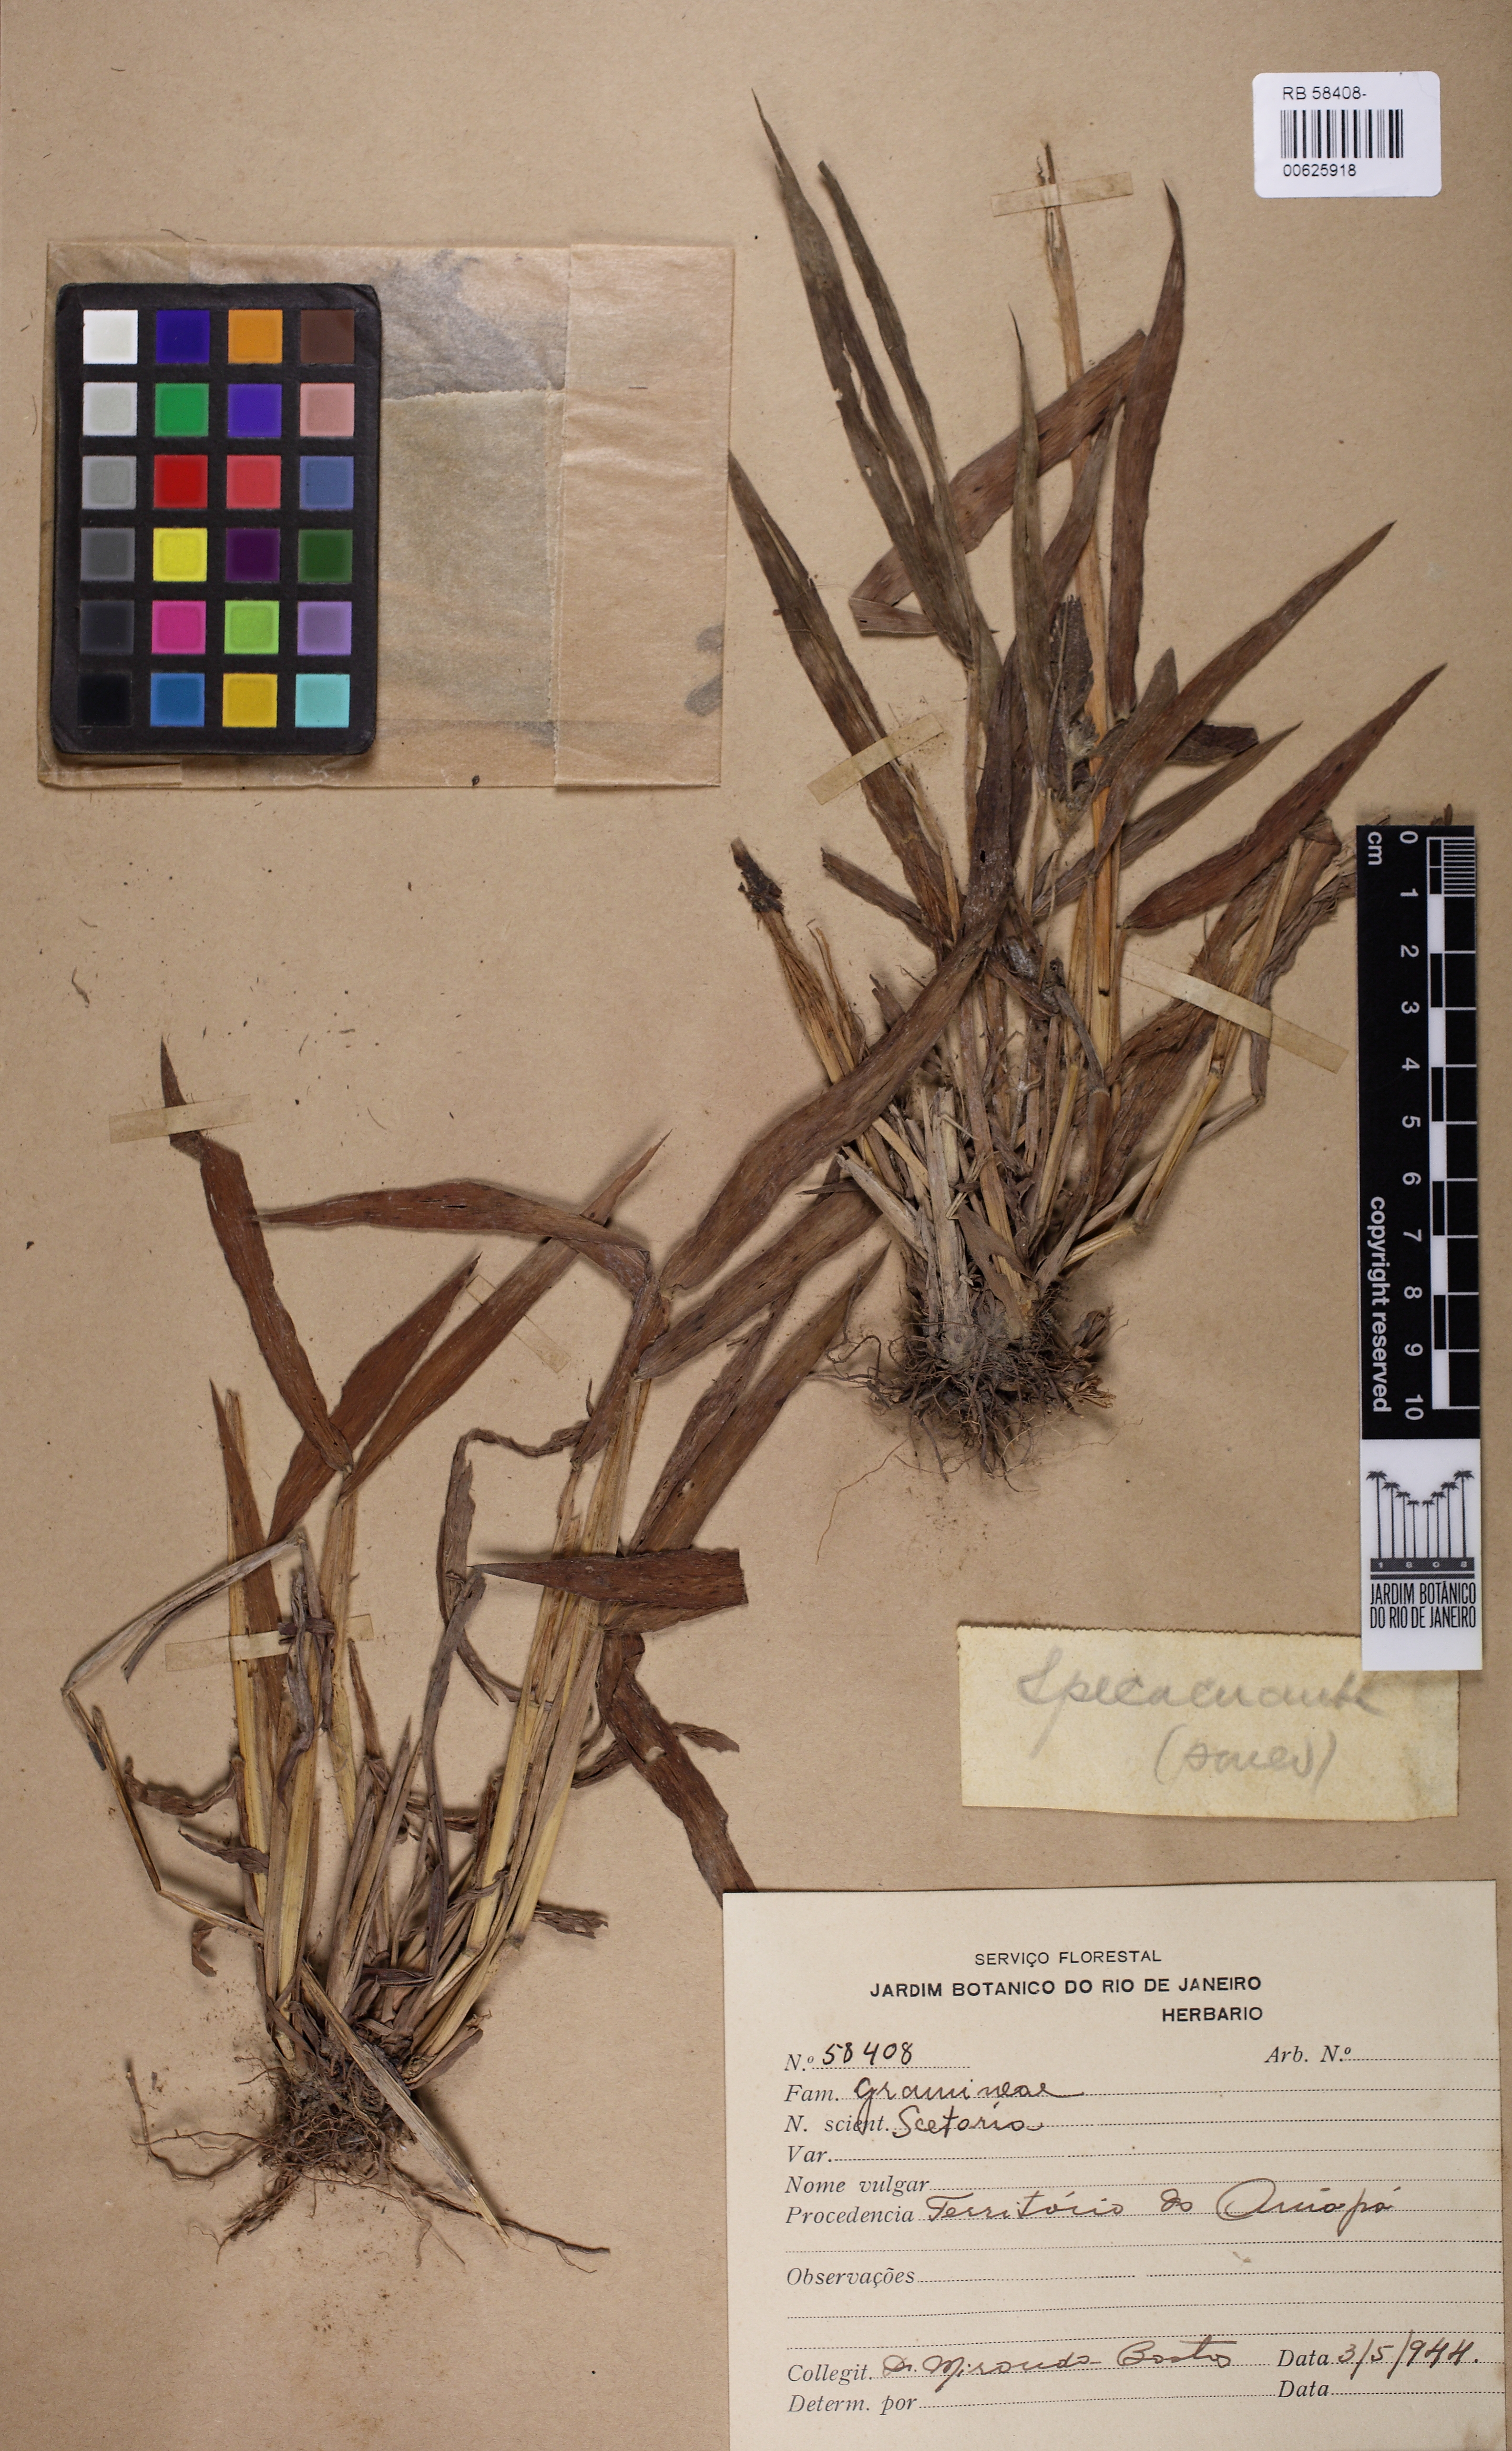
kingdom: Plantae
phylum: Tracheophyta
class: Liliopsida
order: Poales
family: Poaceae
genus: Setaria
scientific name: Setaria
